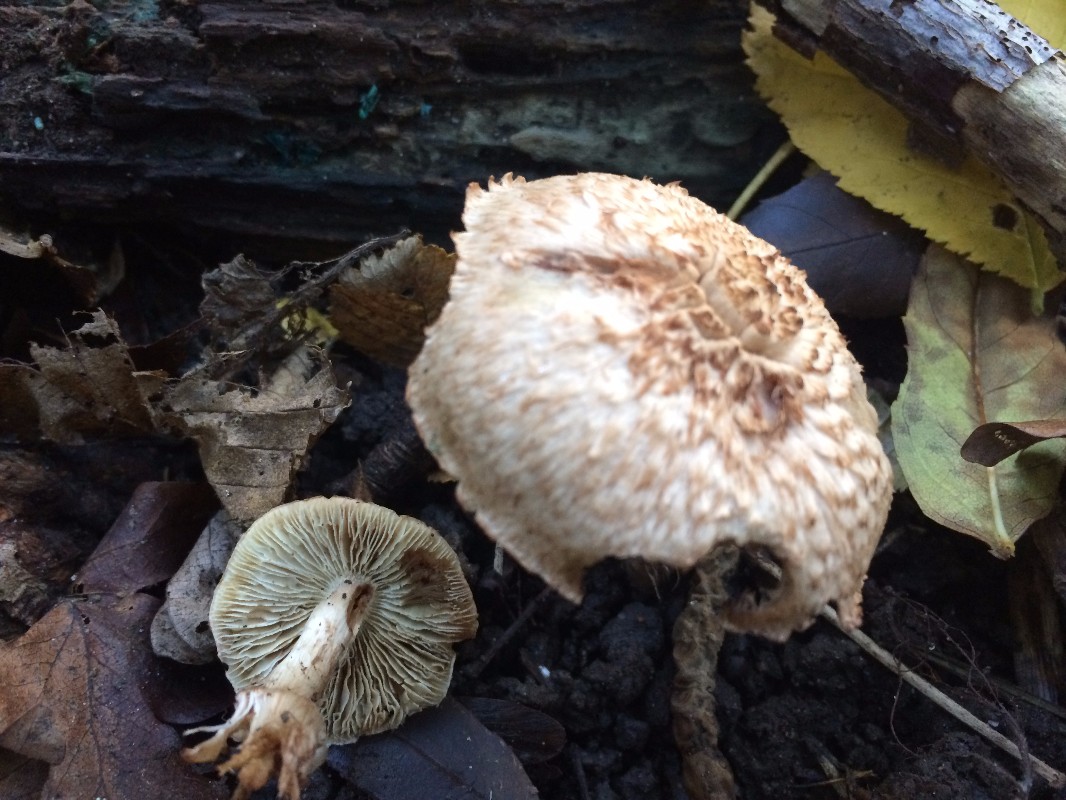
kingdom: Fungi
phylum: Basidiomycota
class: Agaricomycetes
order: Agaricales
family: Inocybaceae
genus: Inosperma
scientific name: Inosperma cervicolor
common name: hjortebrun trævlhat
